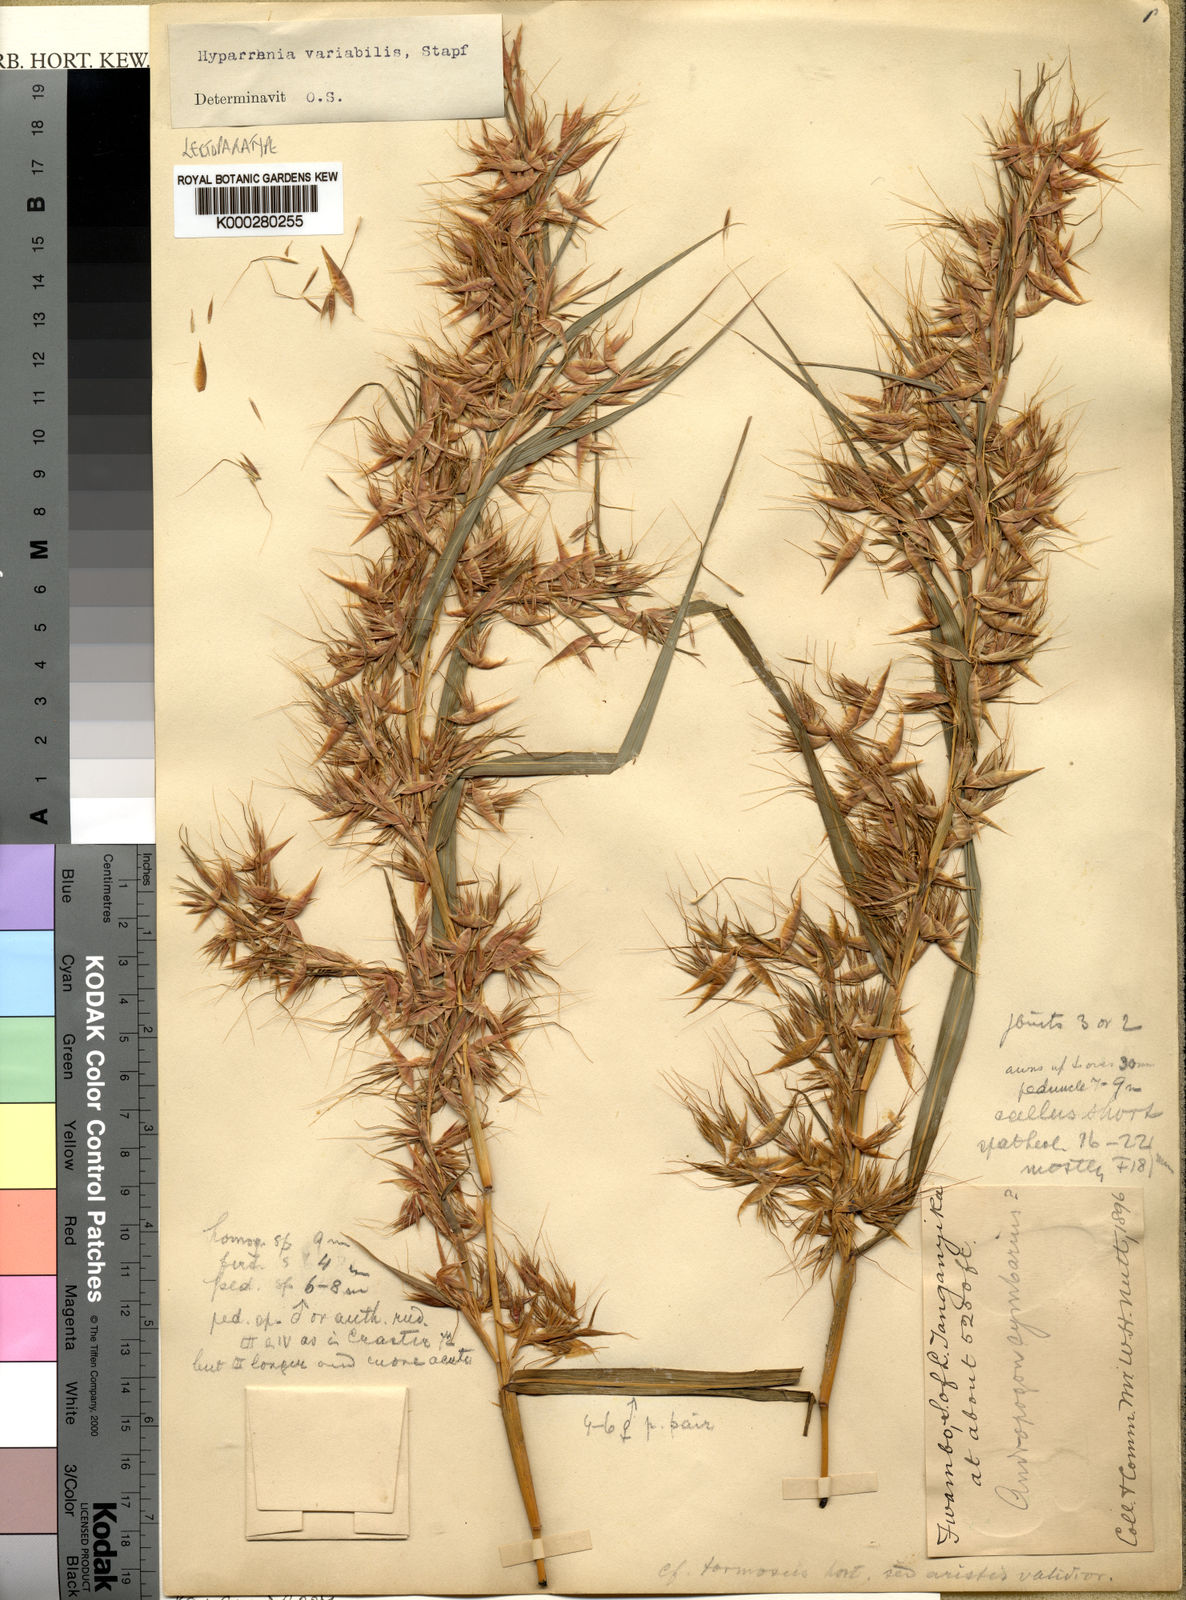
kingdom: Plantae
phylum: Tracheophyta
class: Liliopsida
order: Poales
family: Poaceae
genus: Hyparrhenia
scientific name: Hyparrhenia variabilis
